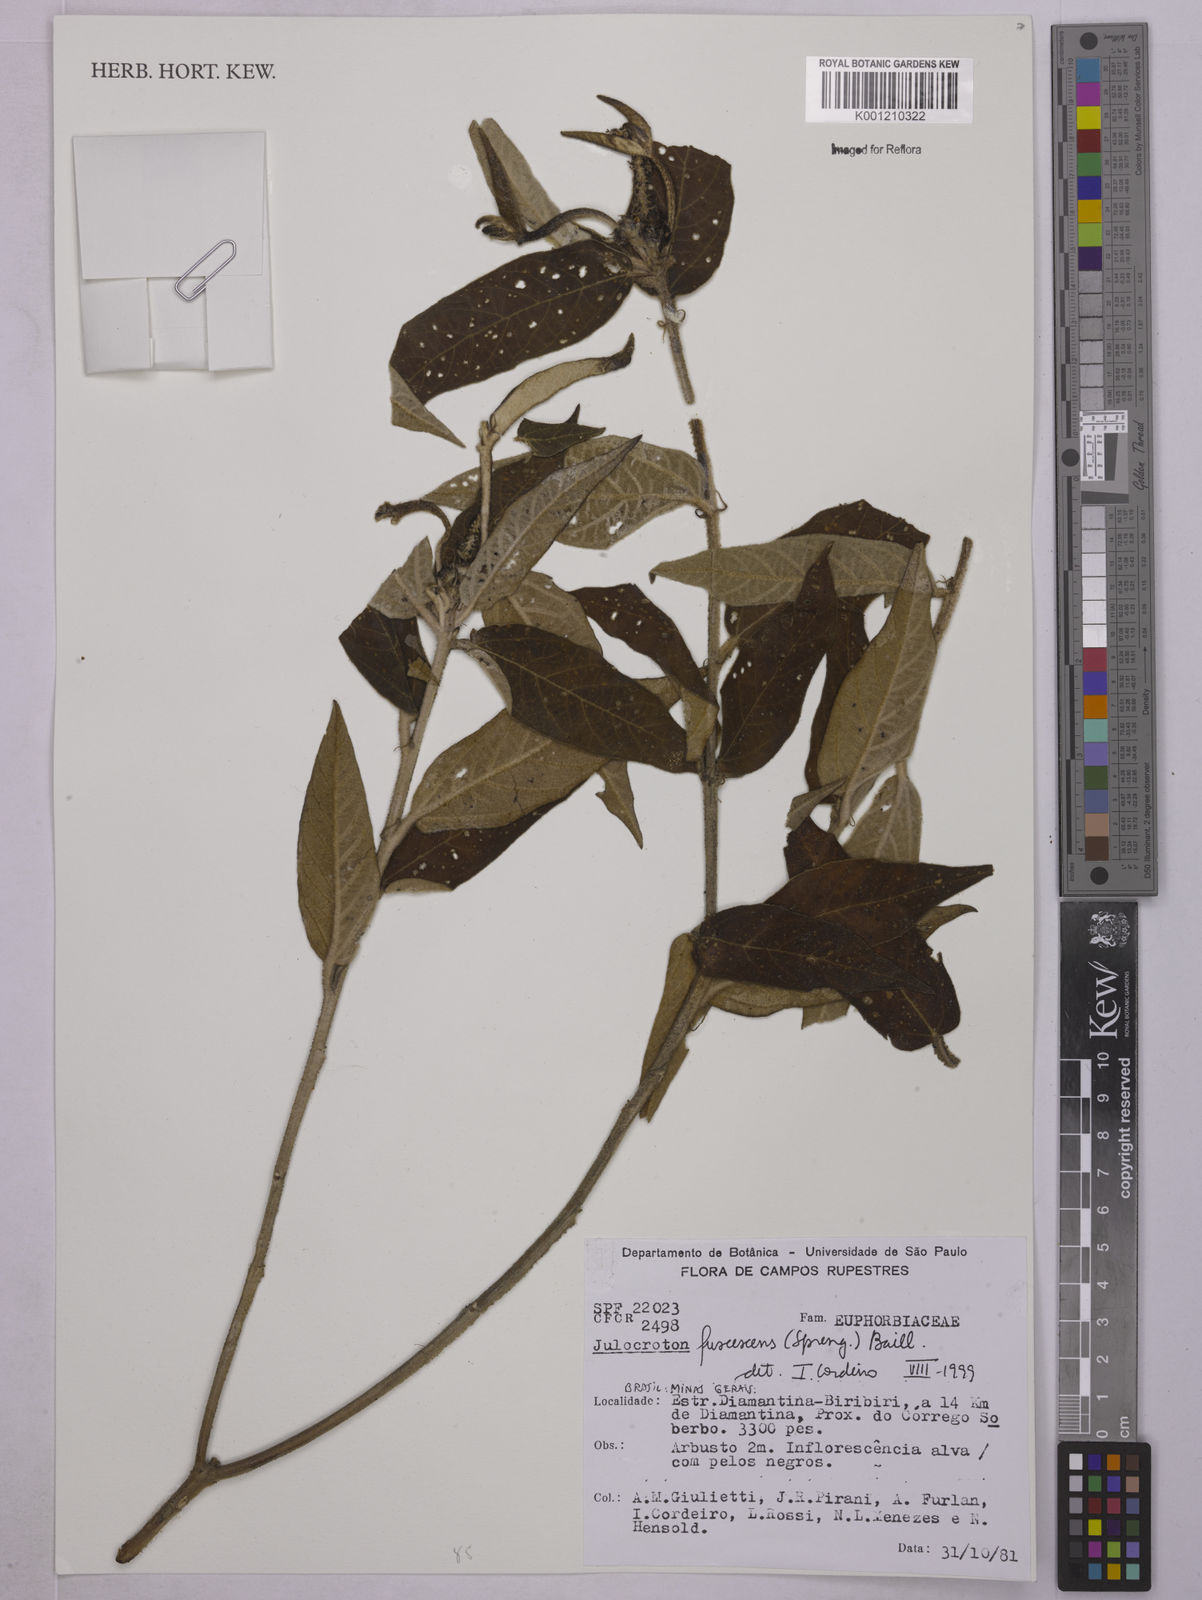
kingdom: Plantae
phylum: Tracheophyta
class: Magnoliopsida
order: Malpighiales
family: Euphorbiaceae
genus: Croton
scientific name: Croton gnaphaloides
